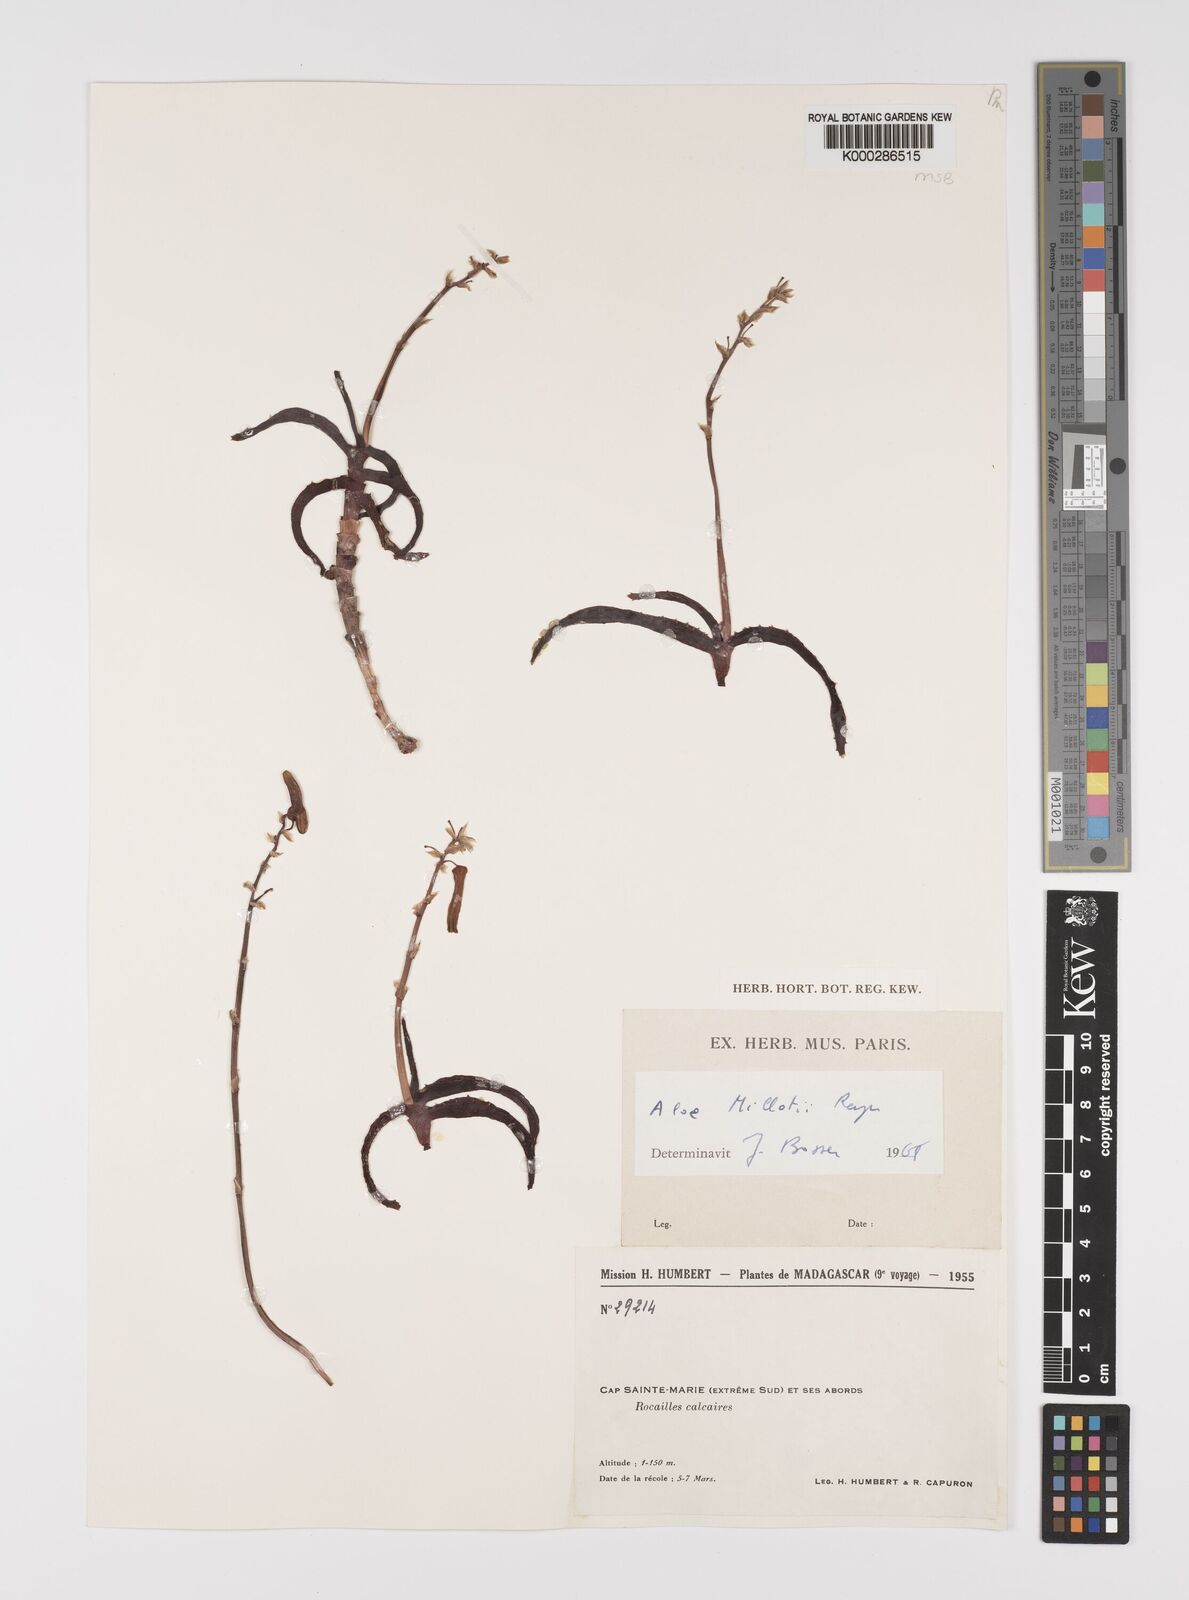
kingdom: Plantae
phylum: Tracheophyta
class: Liliopsida
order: Asparagales
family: Asphodelaceae
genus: Aloe
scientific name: Aloe millotii
